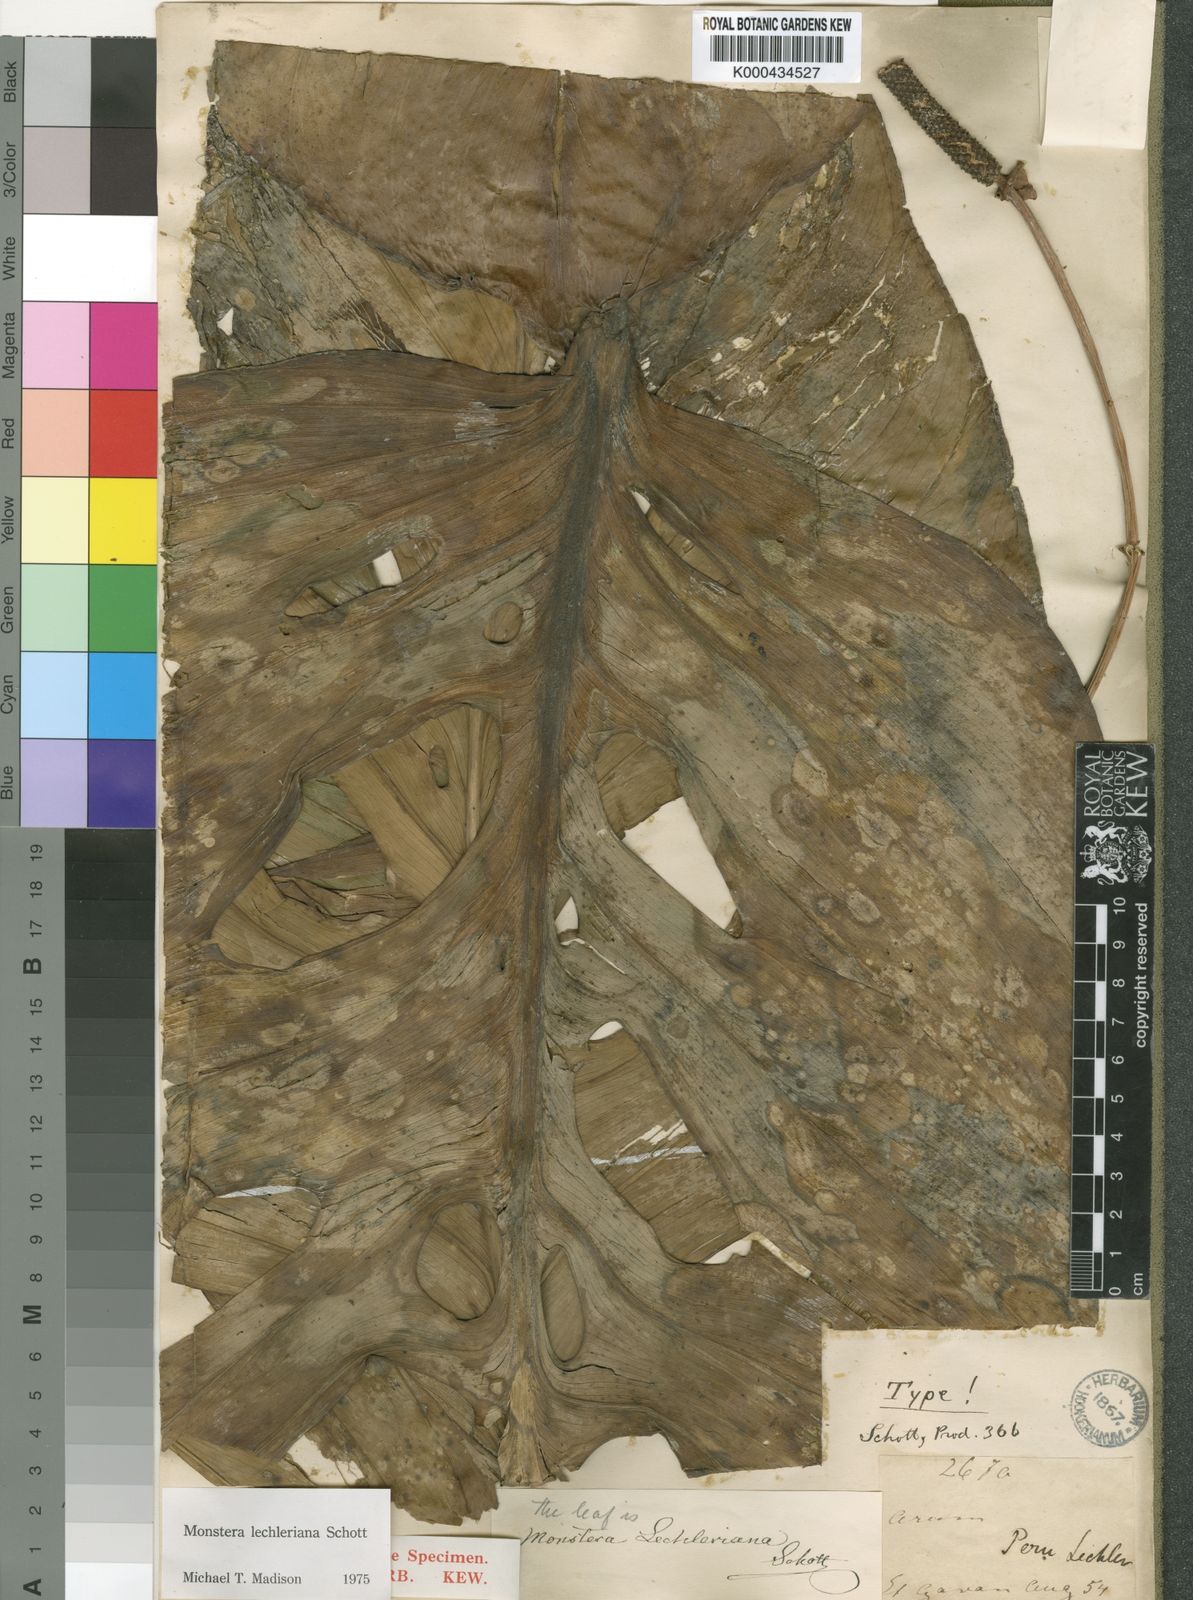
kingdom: Plantae
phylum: Tracheophyta
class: Liliopsida
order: Alismatales
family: Araceae
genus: Monstera
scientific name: Monstera lechleriana
